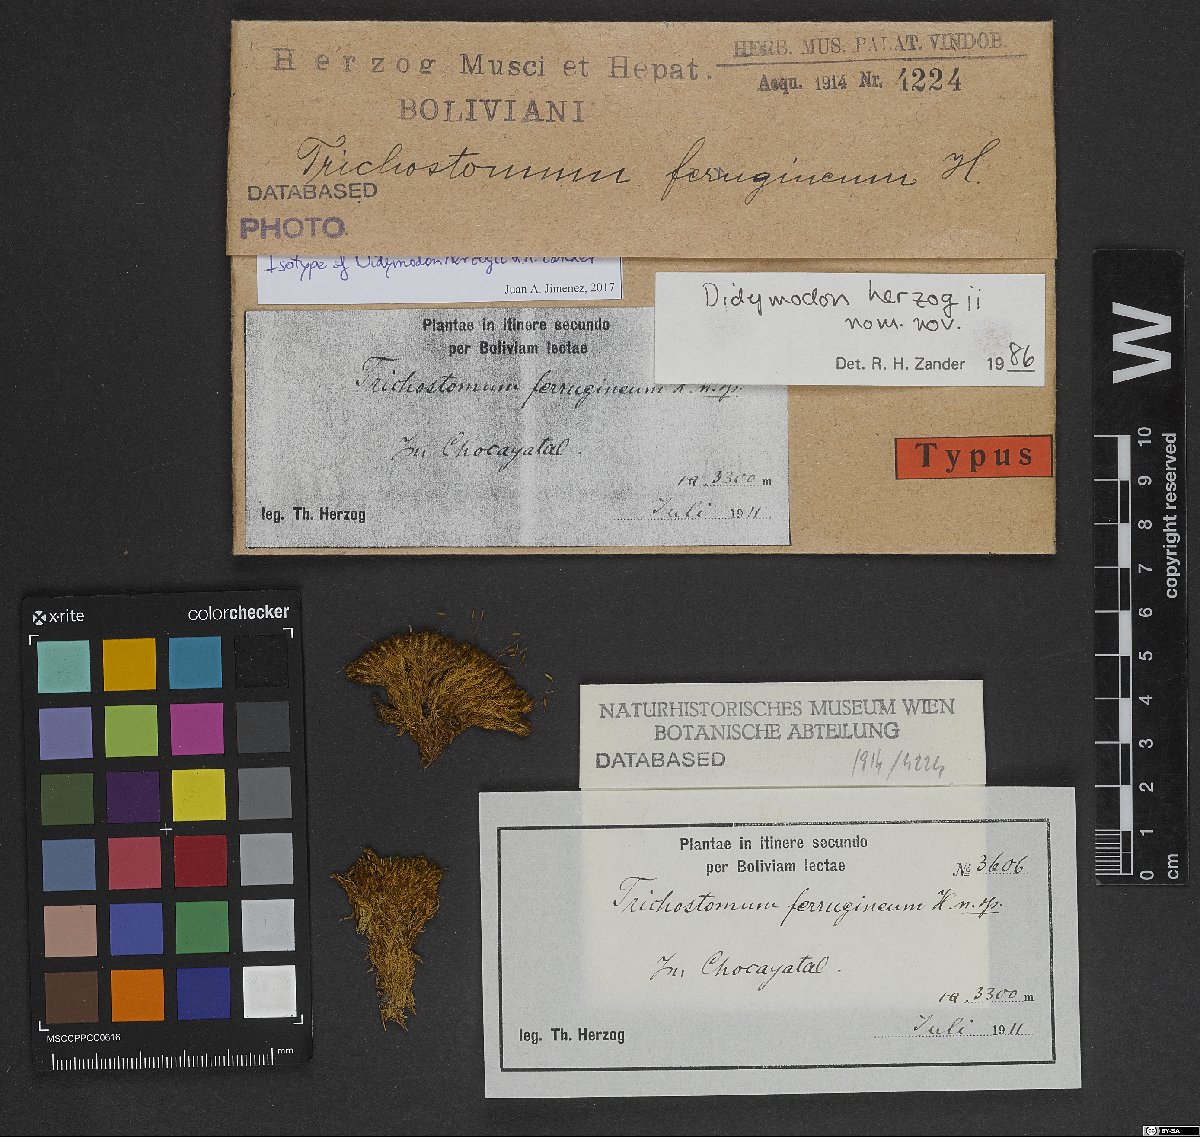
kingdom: Plantae
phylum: Bryophyta
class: Bryopsida
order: Pottiales
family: Pottiaceae
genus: Trichostomopsis
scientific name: Trichostomopsis ferruginea
